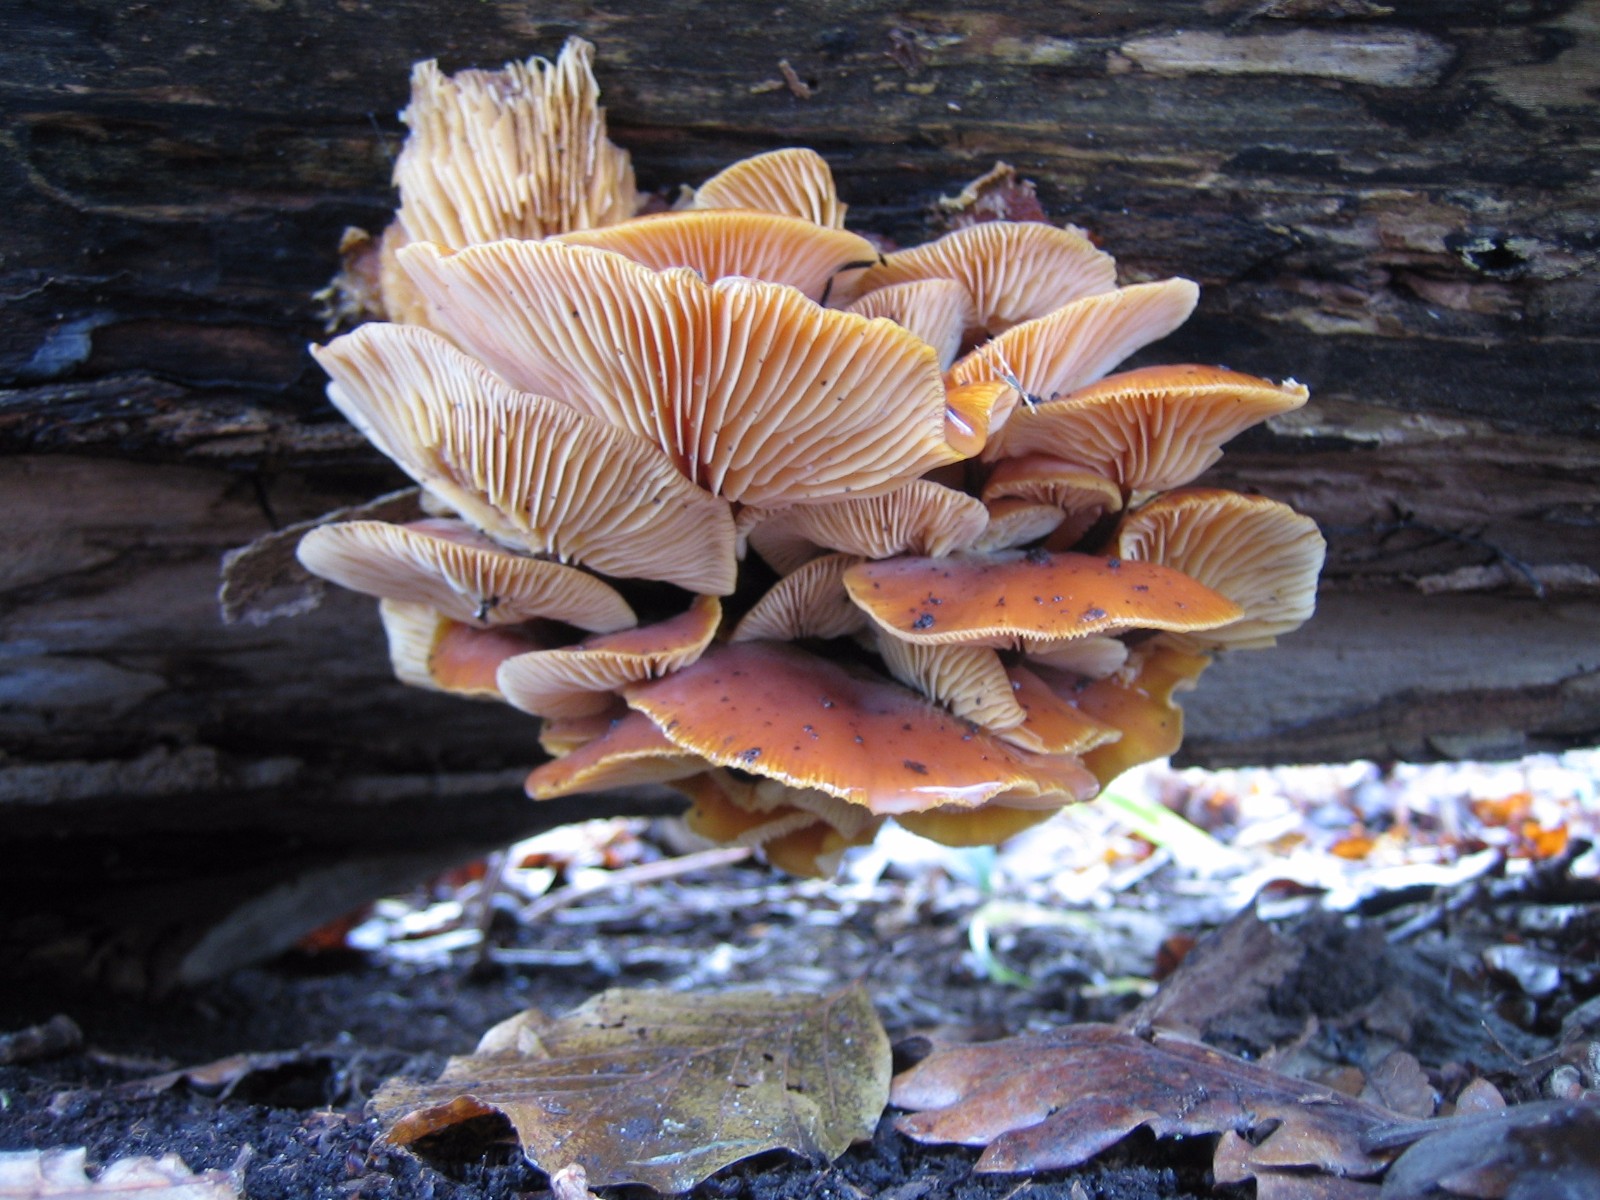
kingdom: Fungi
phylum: Basidiomycota
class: Agaricomycetes
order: Agaricales
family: Physalacriaceae
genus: Flammulina
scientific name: Flammulina velutipes
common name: gul fløjlsfod
